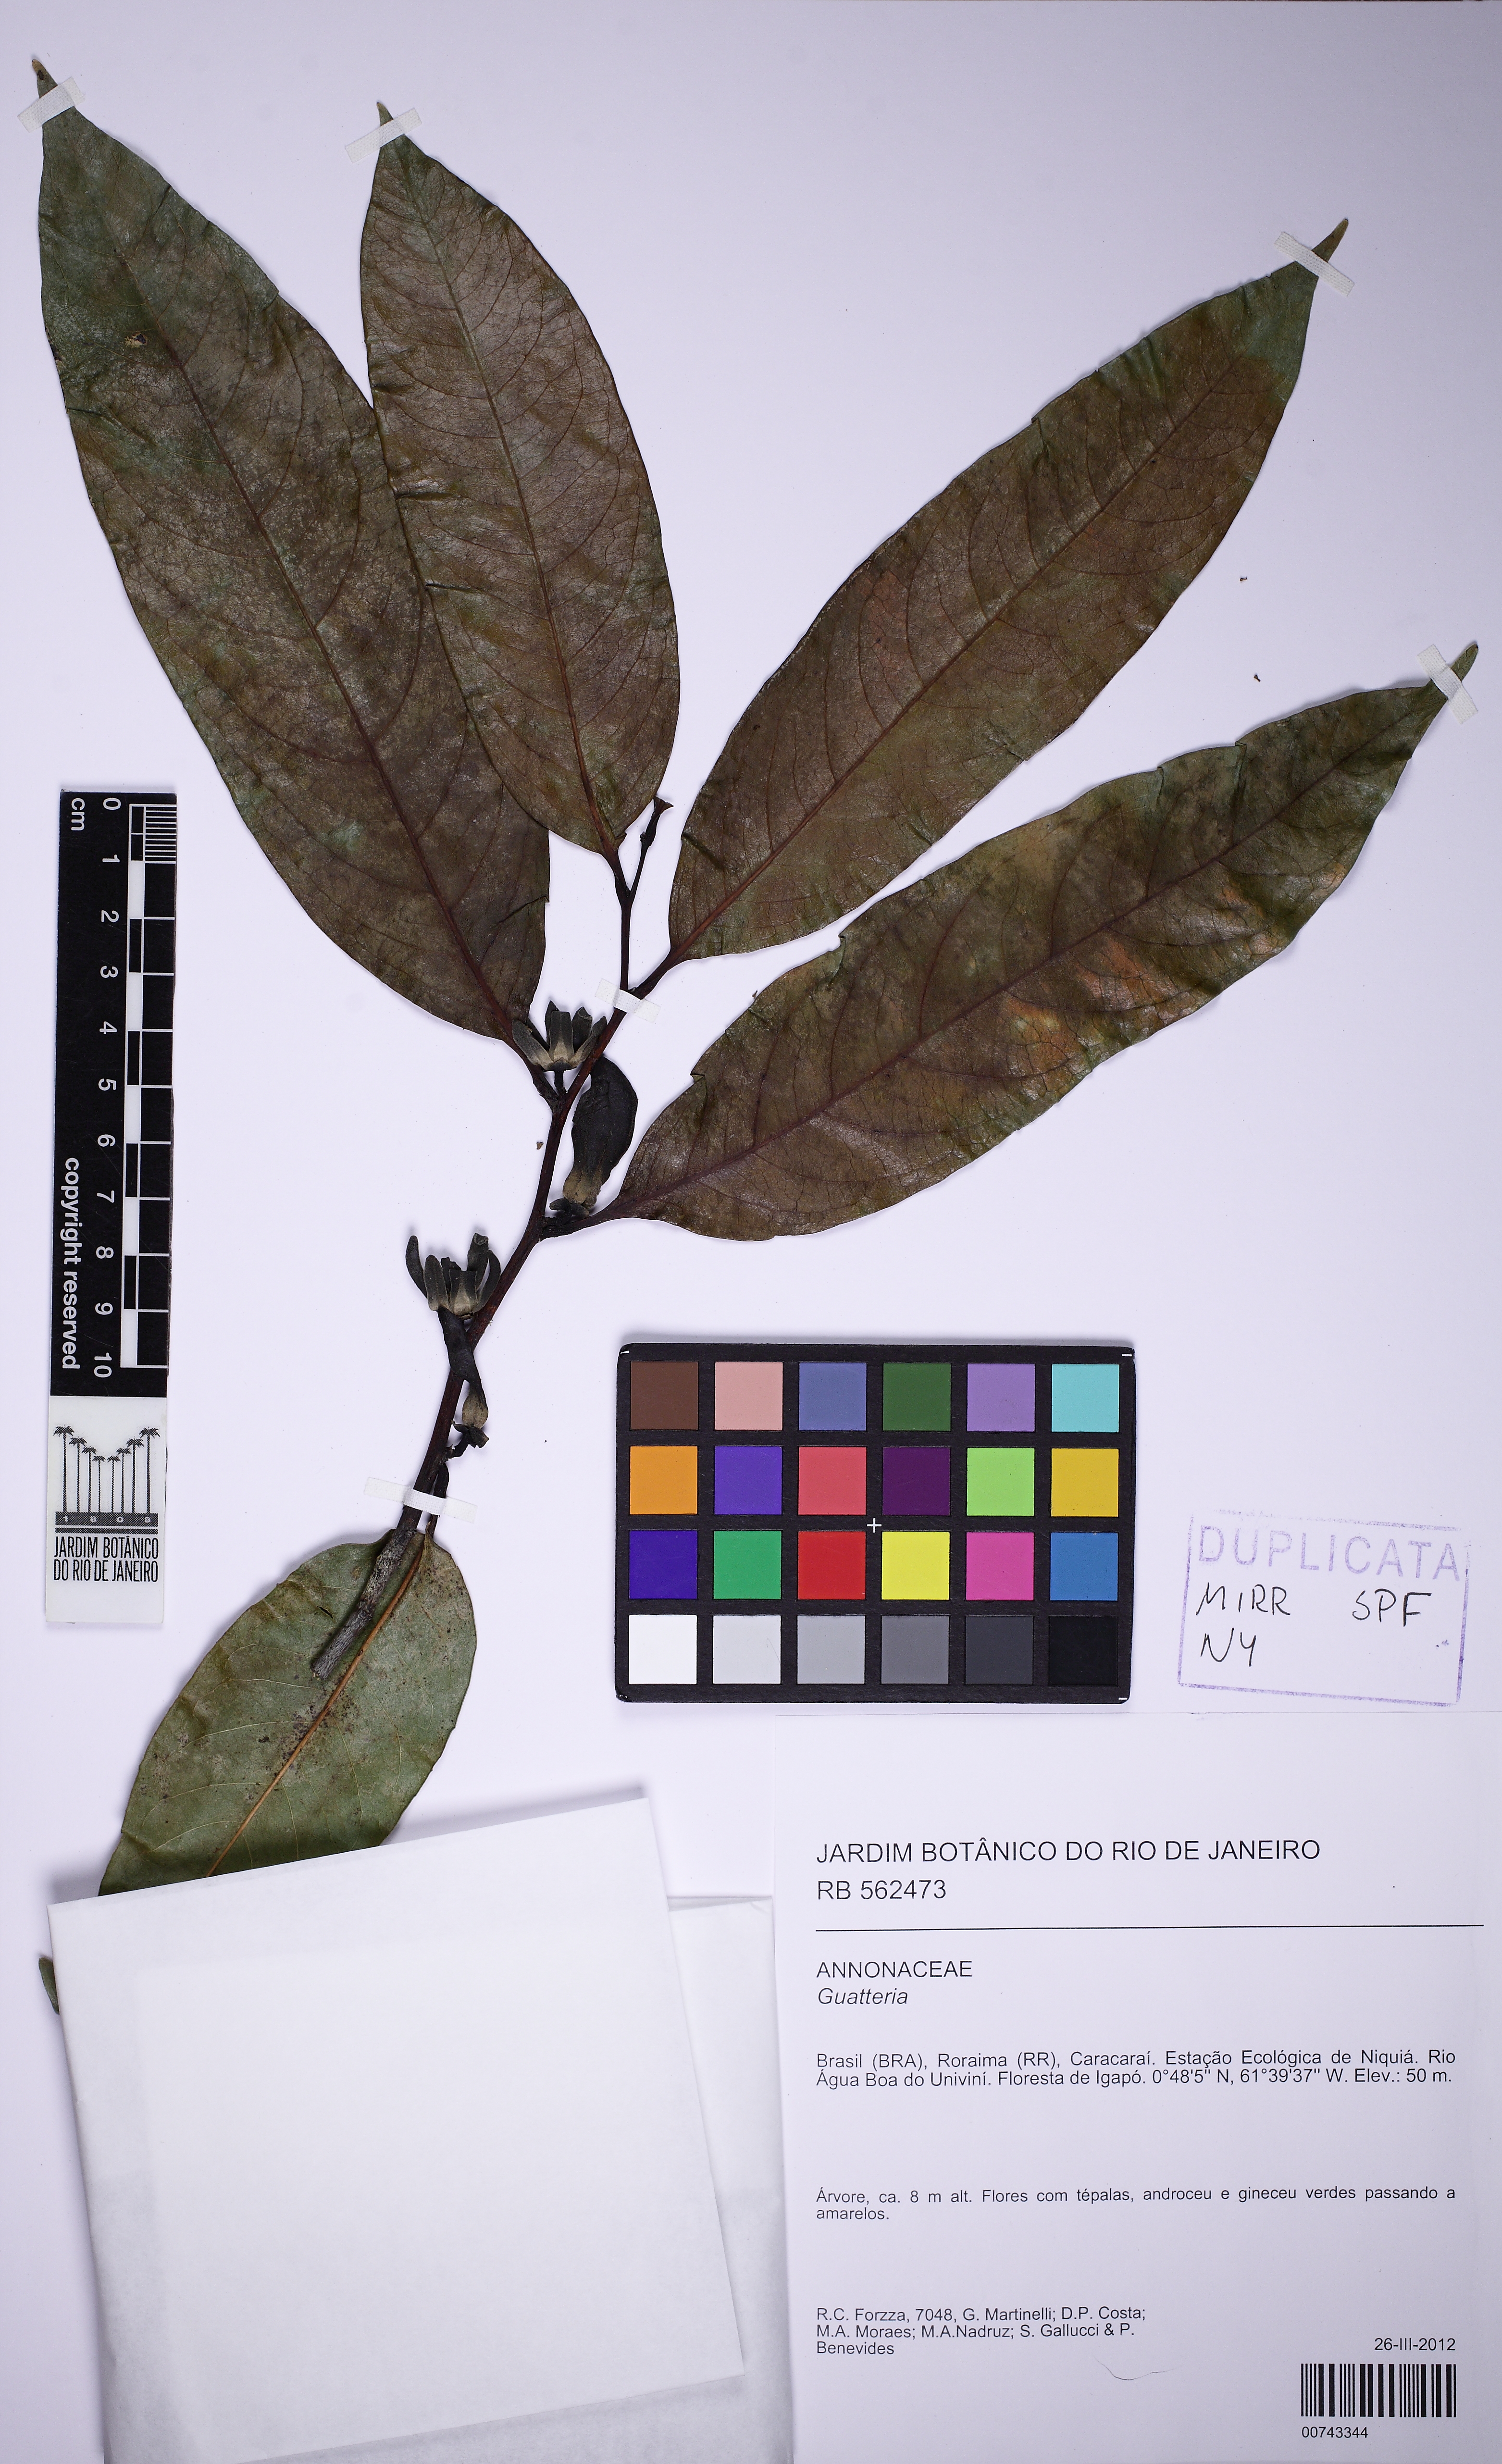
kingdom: Plantae
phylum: Tracheophyta
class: Magnoliopsida
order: Magnoliales
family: Annonaceae
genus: Guatteria
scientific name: Guatteria
